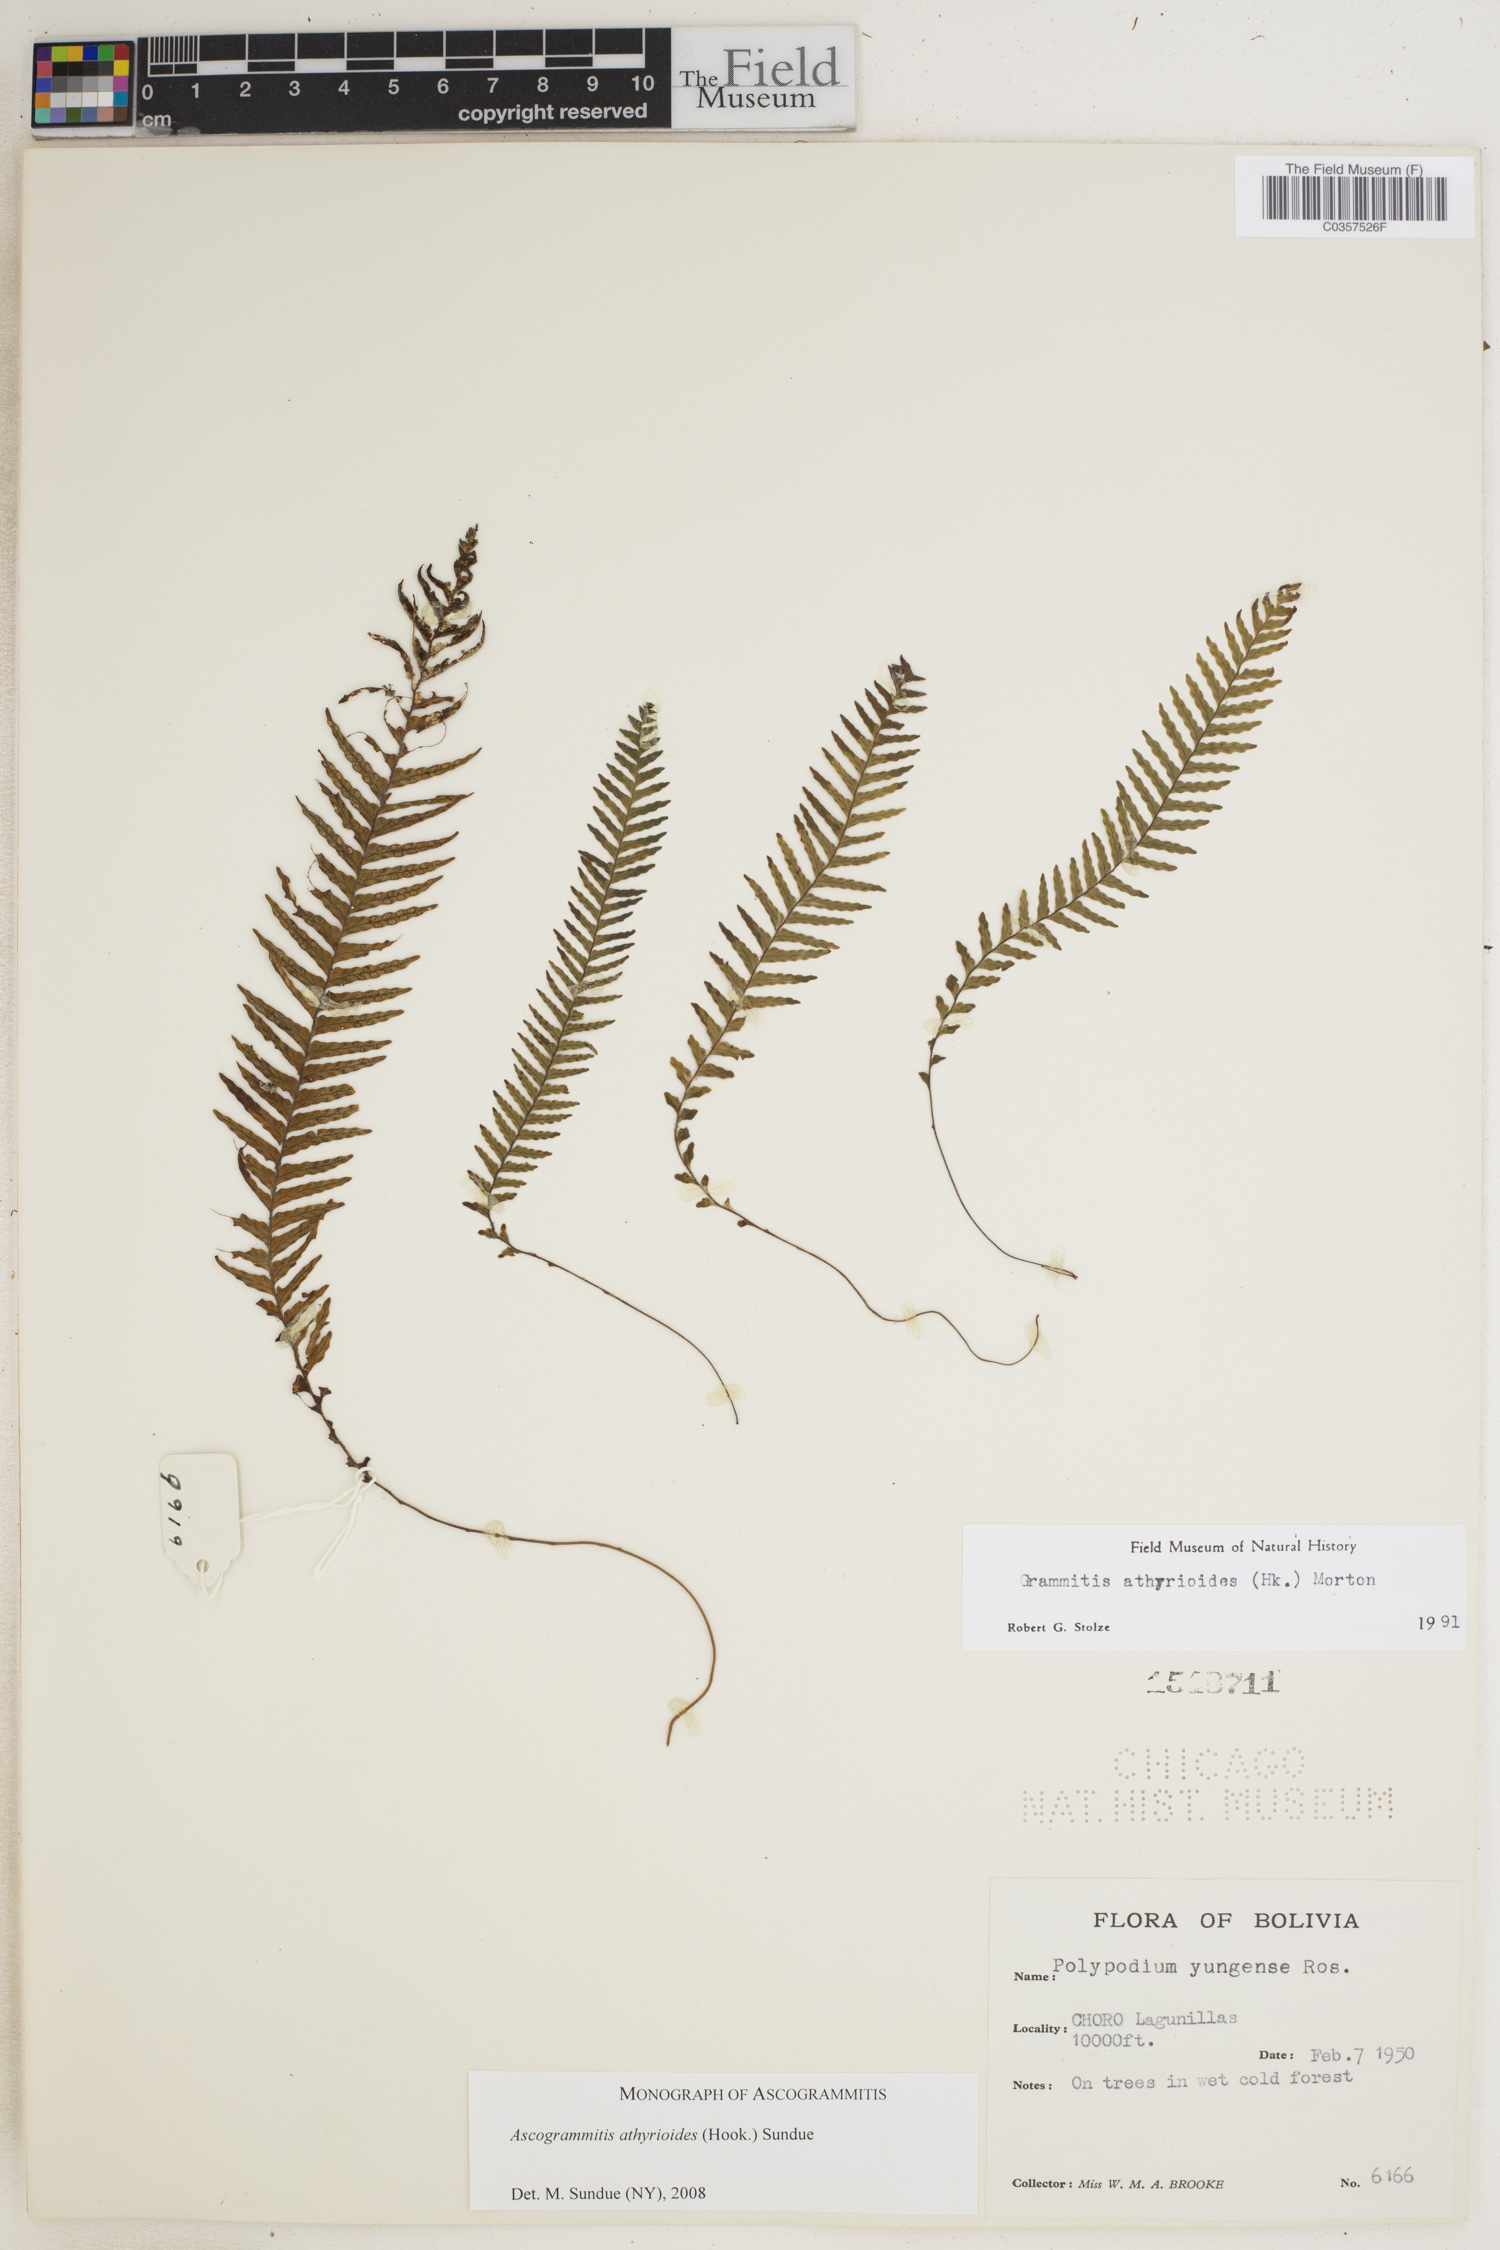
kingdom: Plantae
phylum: Tracheophyta
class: Polypodiopsida
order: Polypodiales
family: Polypodiaceae
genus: Ascogrammitis
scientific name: Ascogrammitis athyrioides
